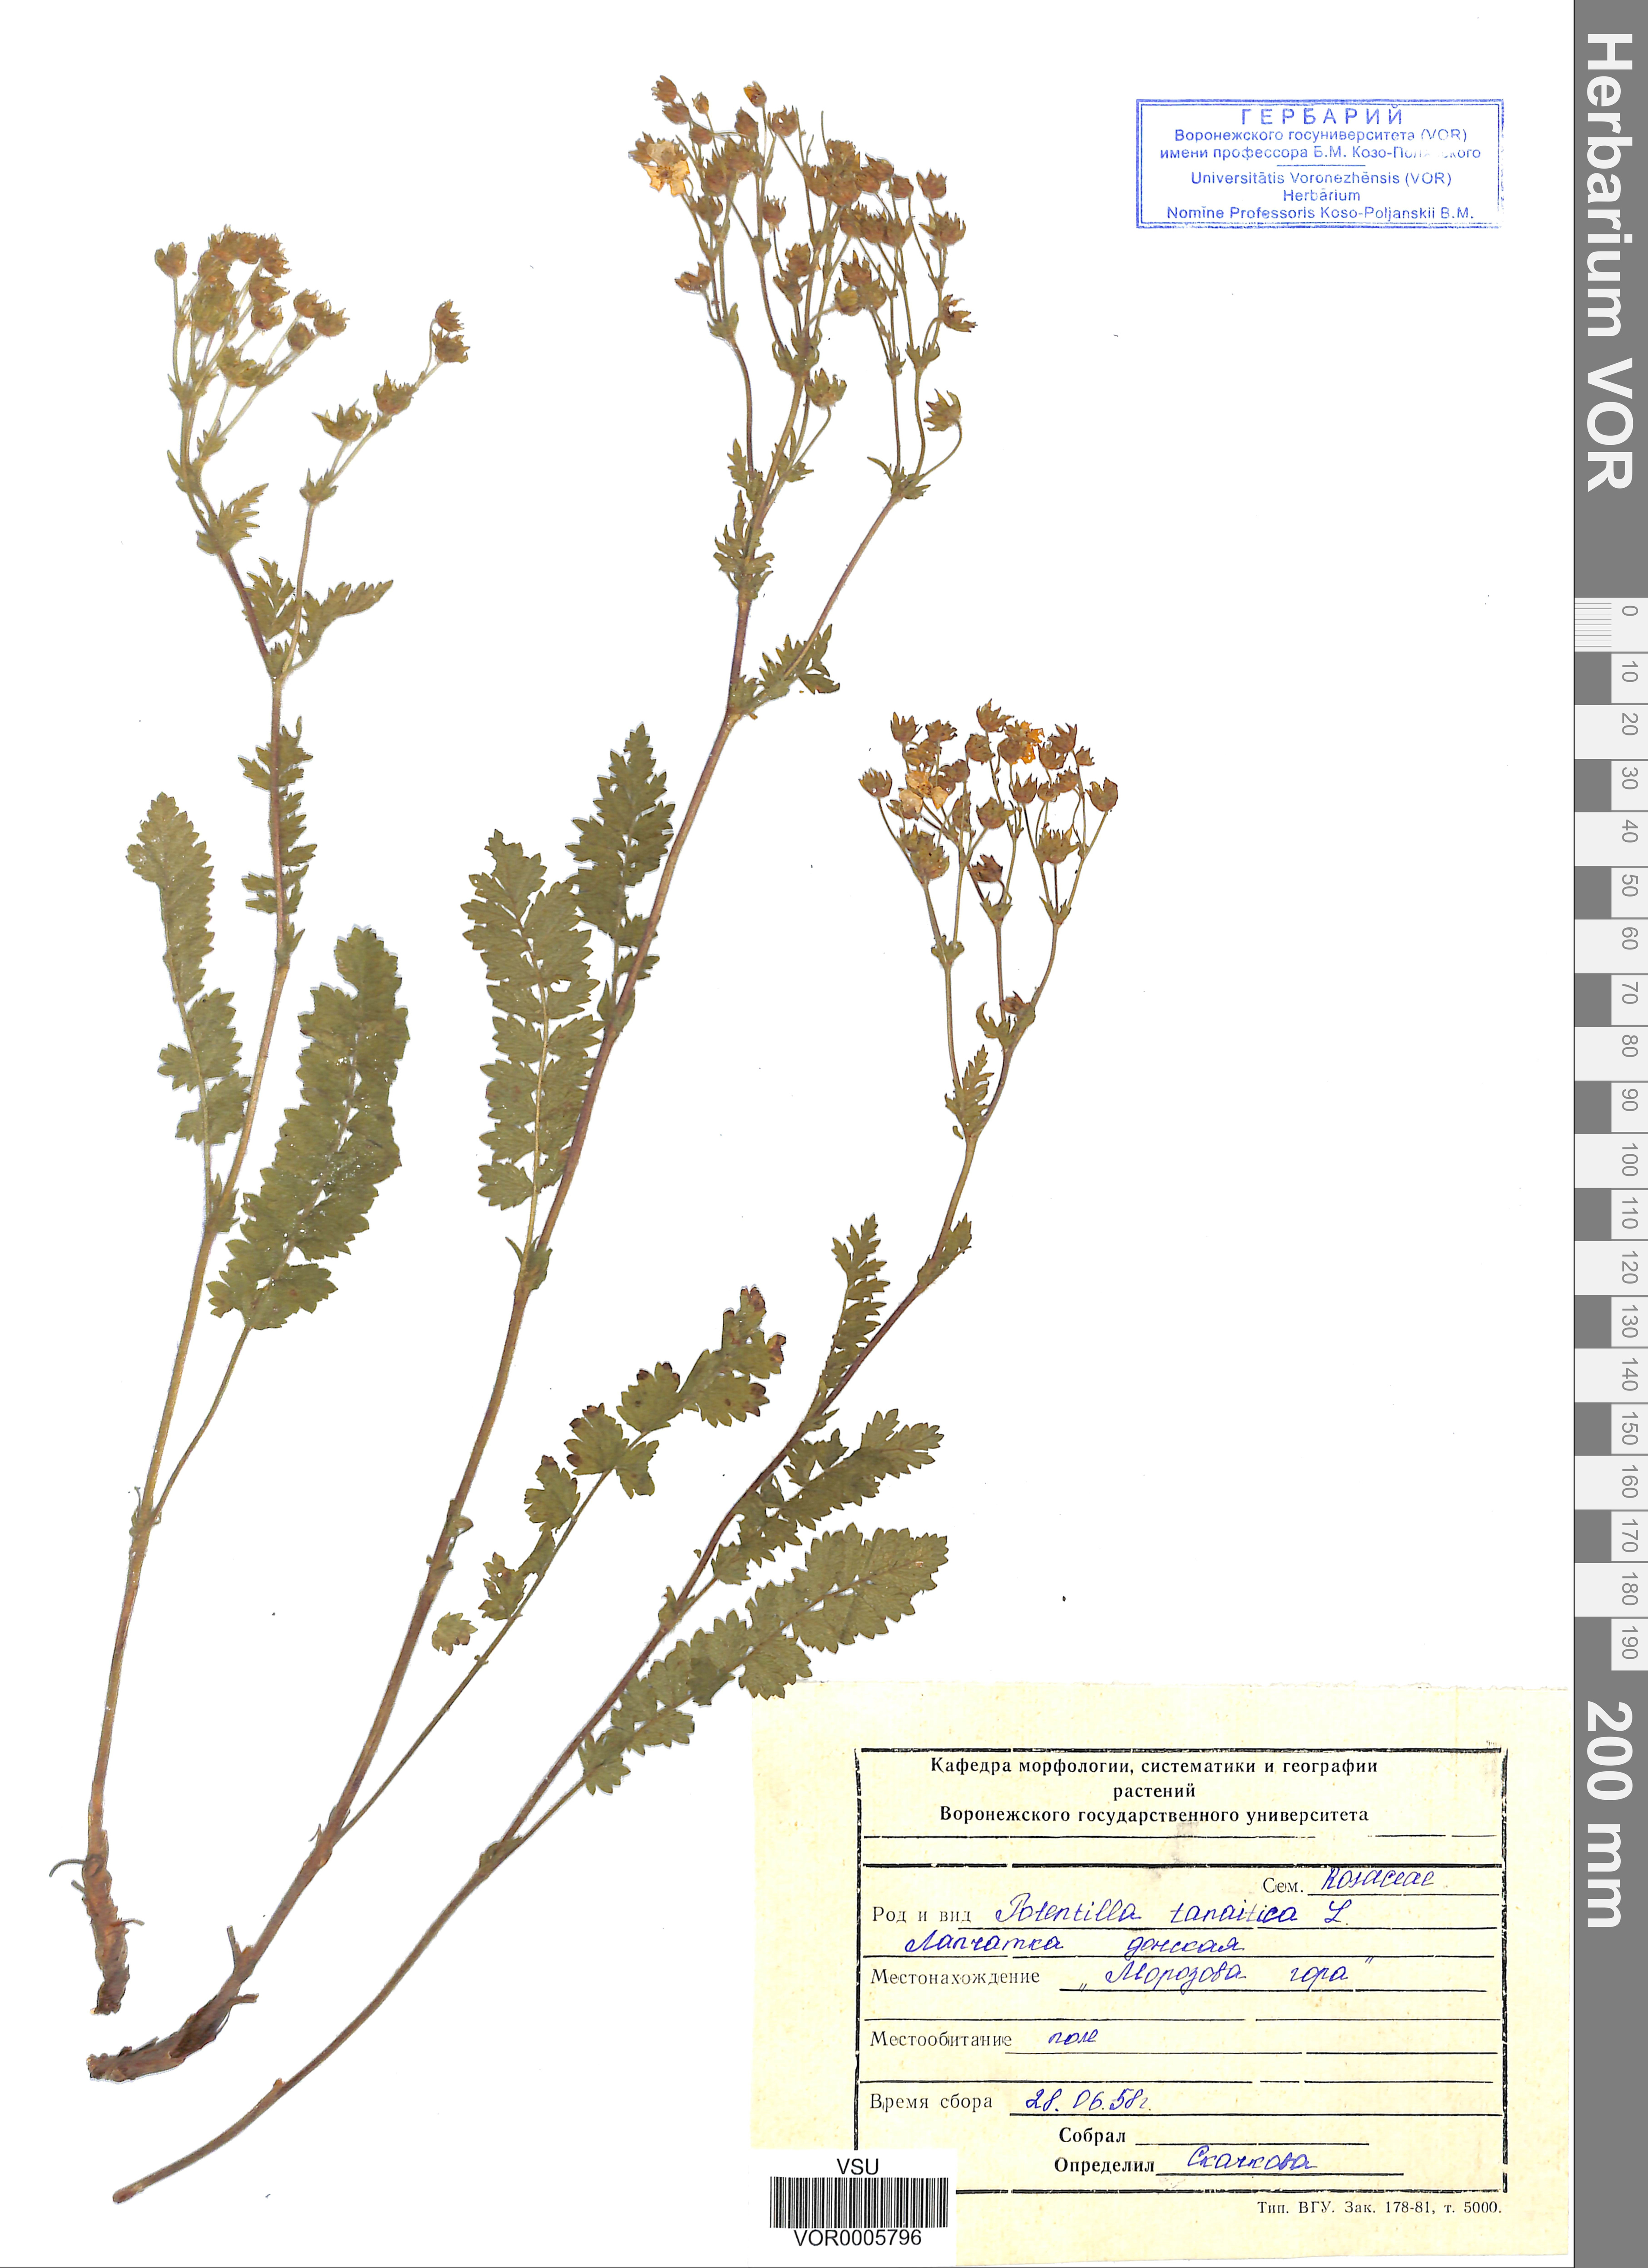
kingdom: Plantae
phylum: Tracheophyta
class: Magnoliopsida
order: Rosales
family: Rosaceae
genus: Potentilla
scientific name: Potentilla tanaitica
